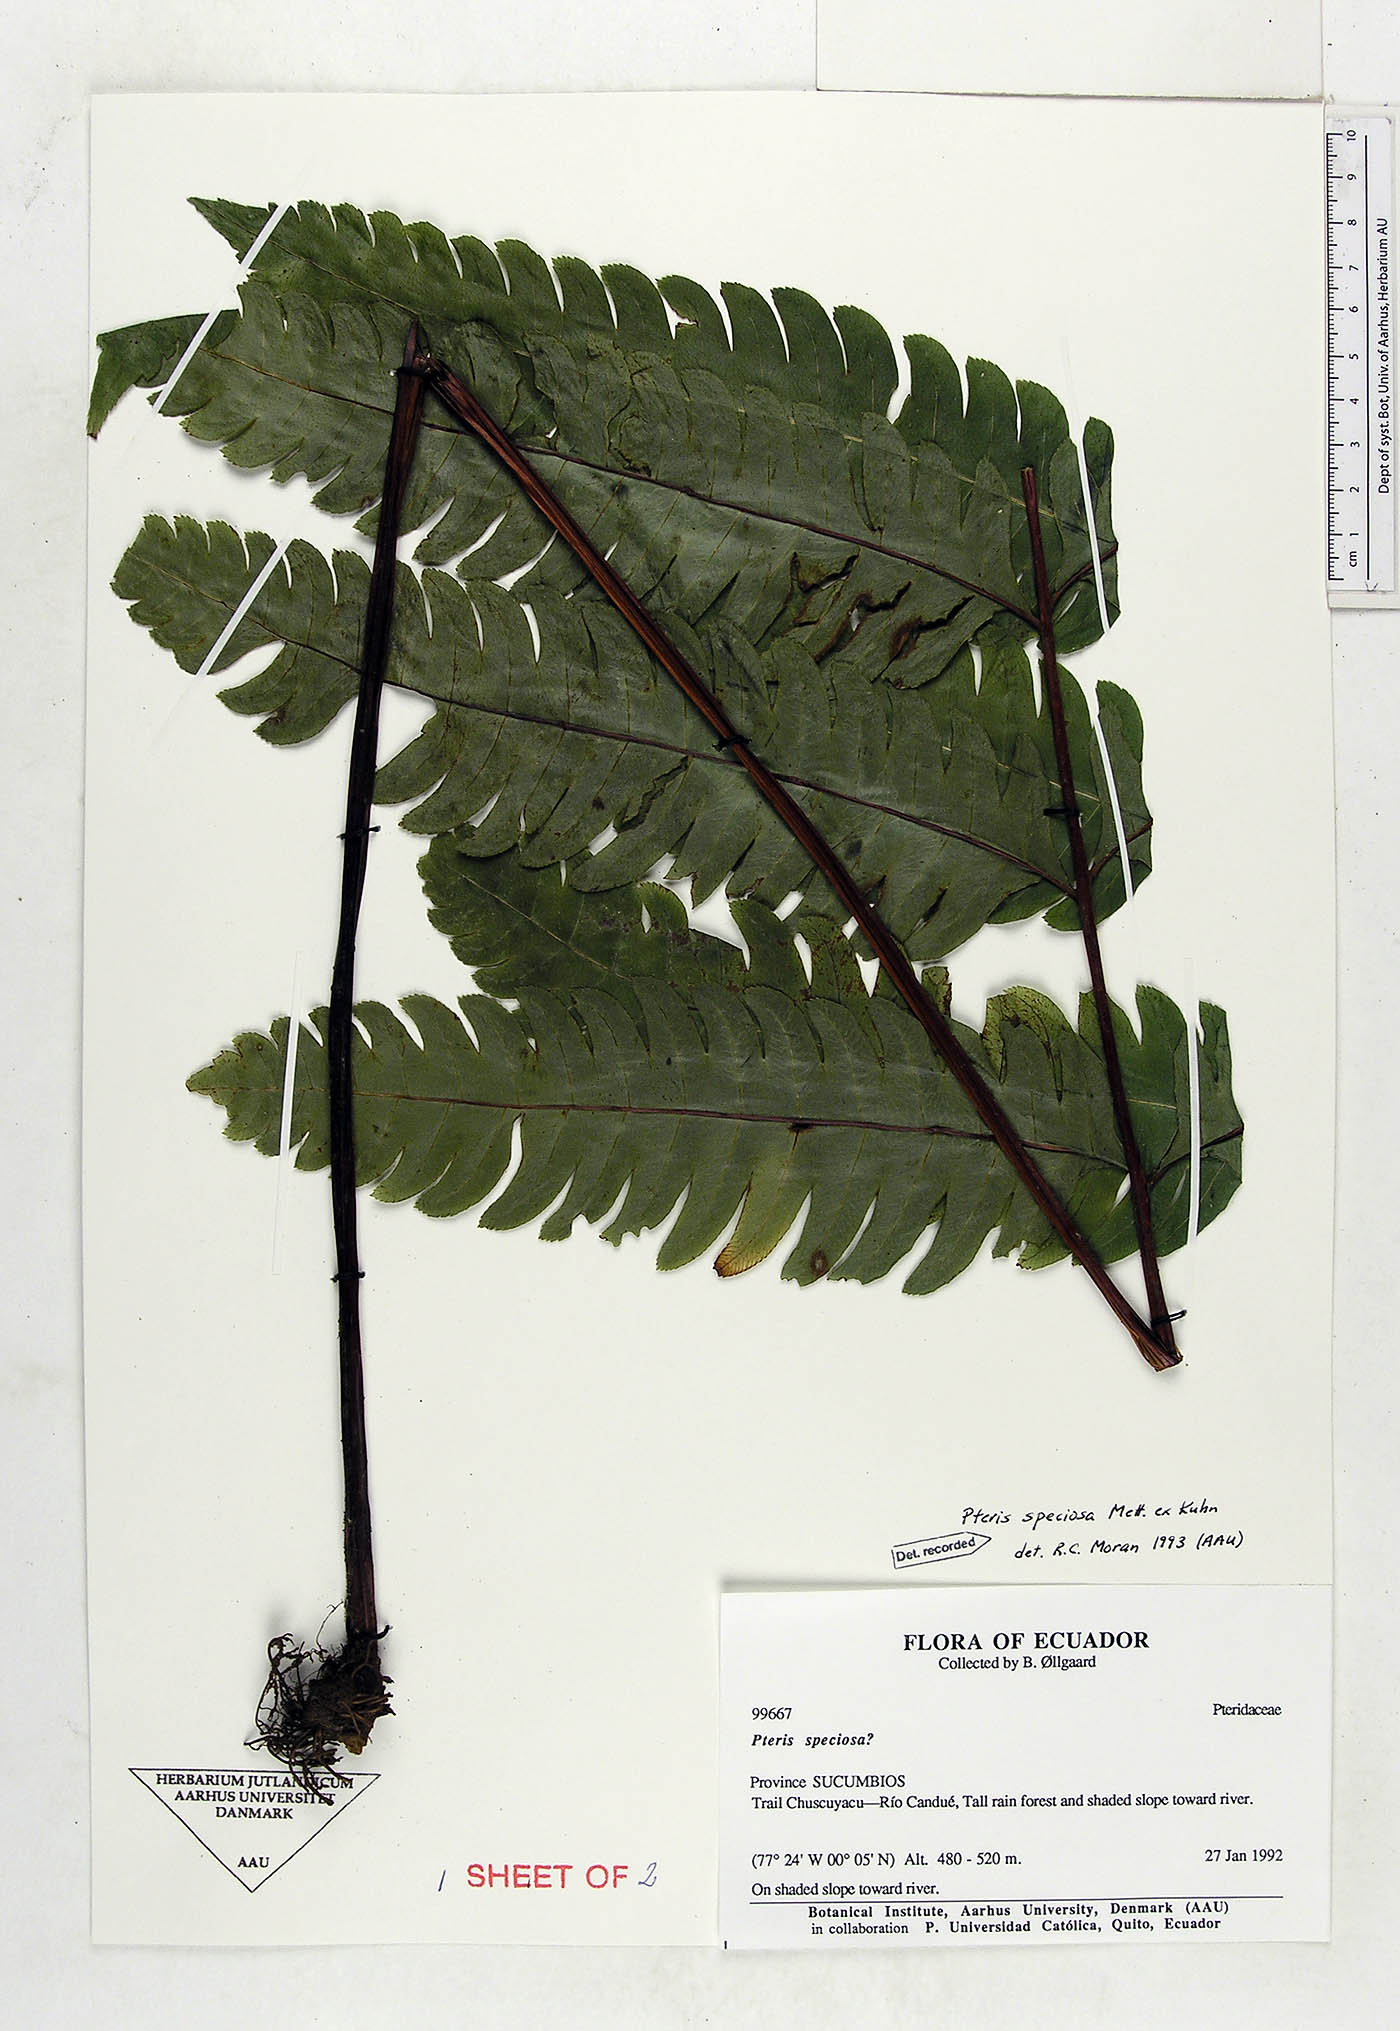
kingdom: Plantae
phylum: Tracheophyta
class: Polypodiopsida
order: Polypodiales
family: Pteridaceae
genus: Pteris
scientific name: Pteris speciosa
